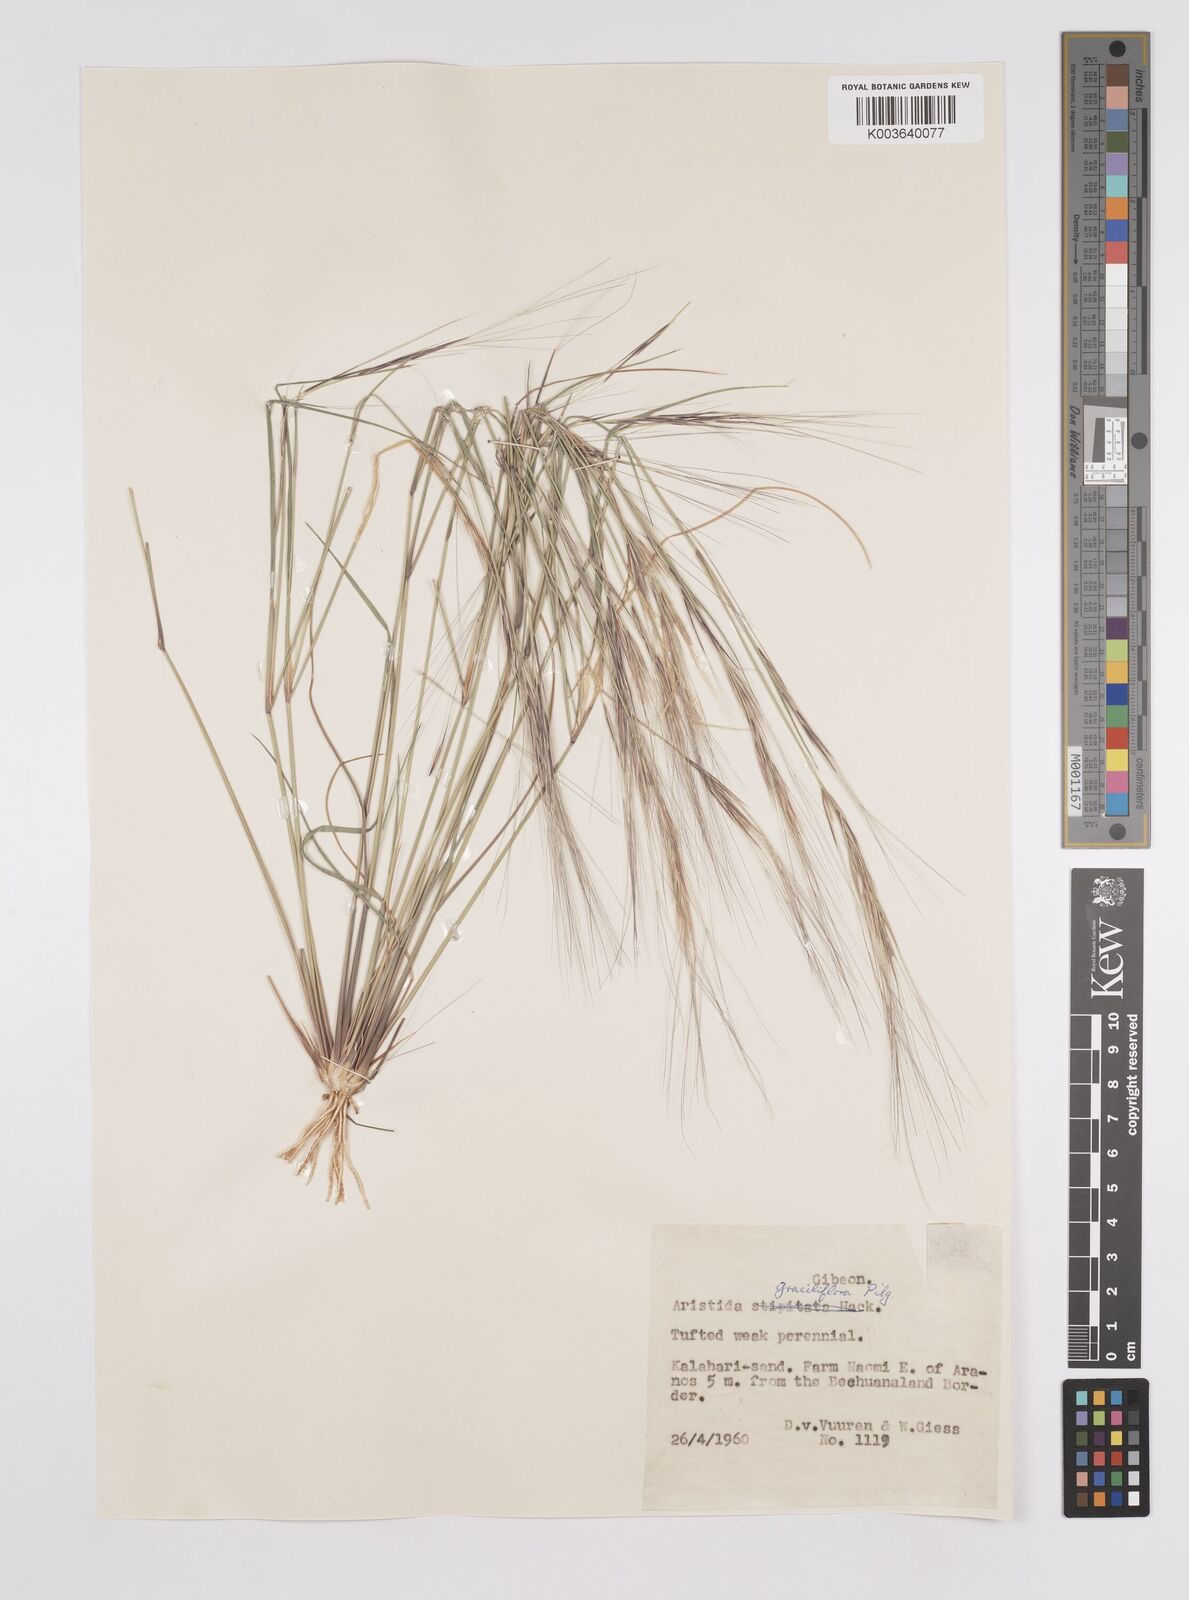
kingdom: Plantae
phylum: Tracheophyta
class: Liliopsida
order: Poales
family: Poaceae
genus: Aristida
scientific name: Aristida stipitata
